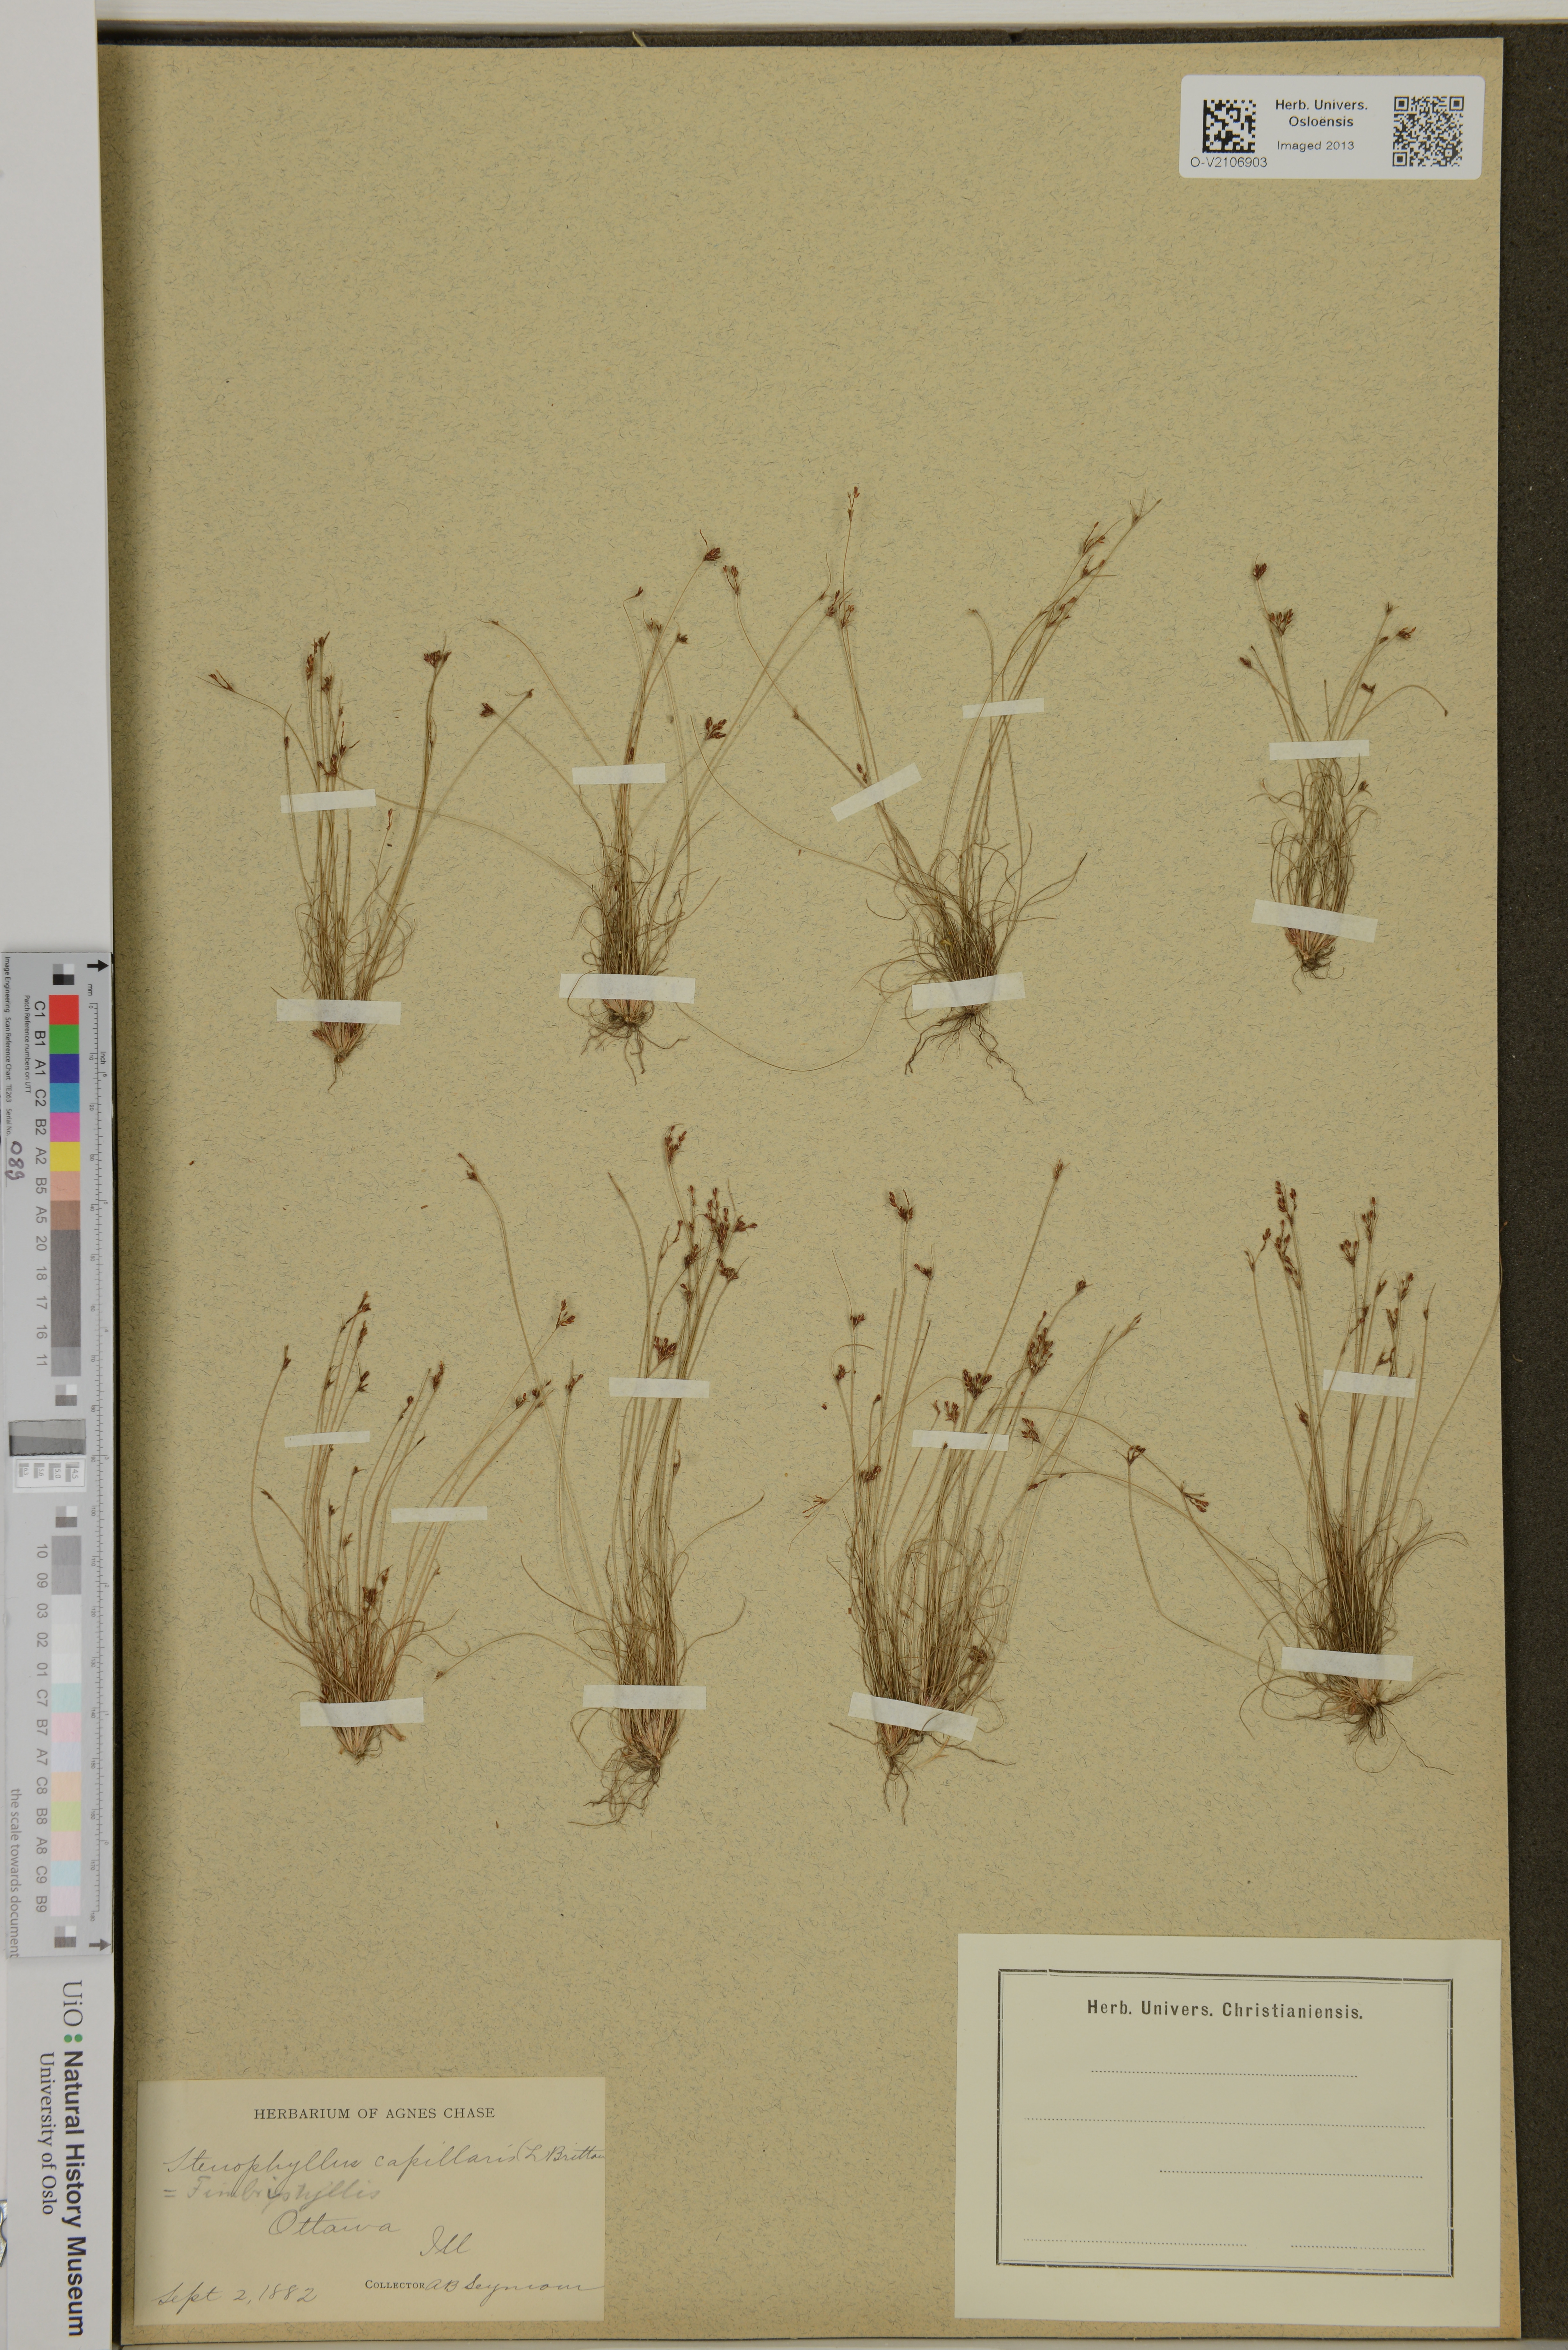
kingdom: Plantae
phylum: Tracheophyta
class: Liliopsida
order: Poales
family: Cyperaceae
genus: Bulbostylis
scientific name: Bulbostylis capillaris
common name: Densetuft hairsedge
